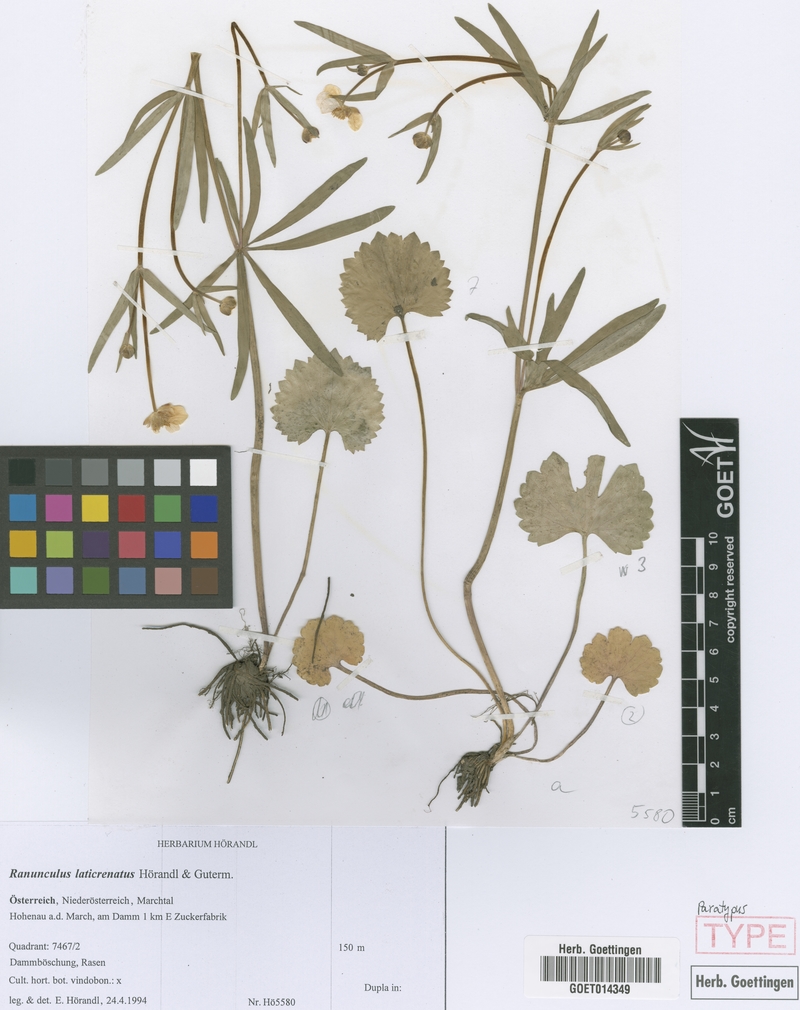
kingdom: Plantae
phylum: Tracheophyta
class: Magnoliopsida
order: Ranunculales
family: Ranunculaceae
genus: Ranunculus
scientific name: Ranunculus laticrenatus
